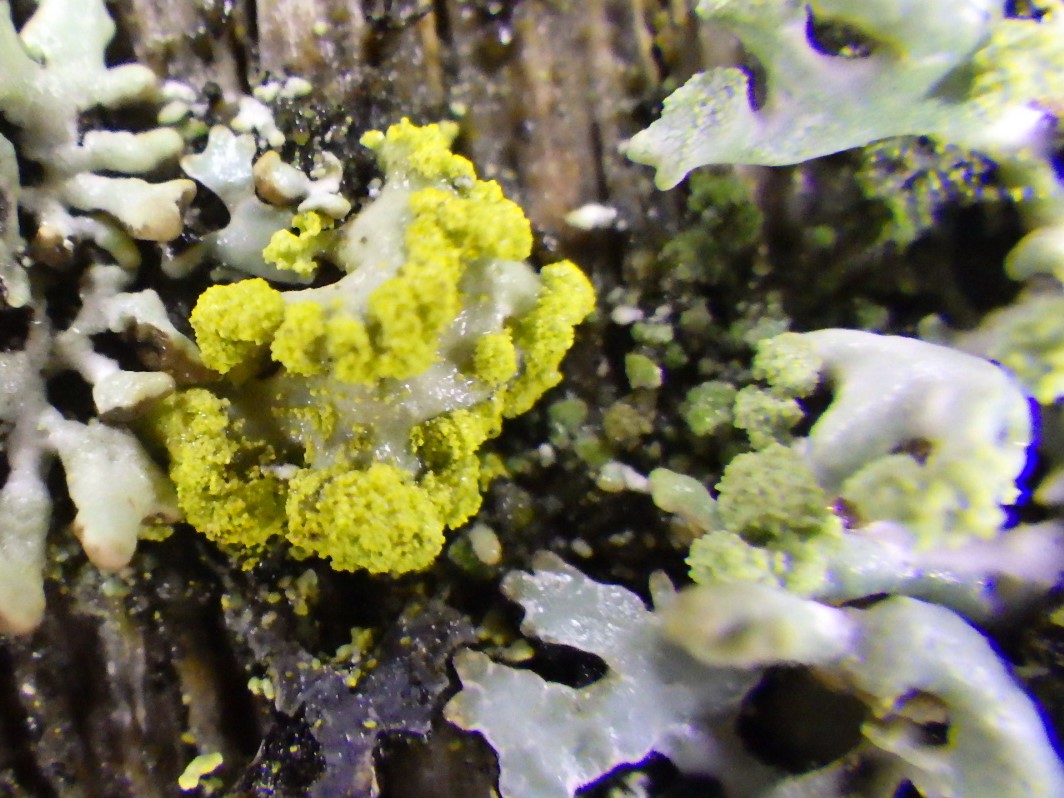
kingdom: Fungi
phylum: Ascomycota
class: Lecanoromycetes
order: Lecanorales
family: Parmeliaceae
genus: Vulpicida
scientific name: Vulpicida pinastri
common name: gul kruslav
